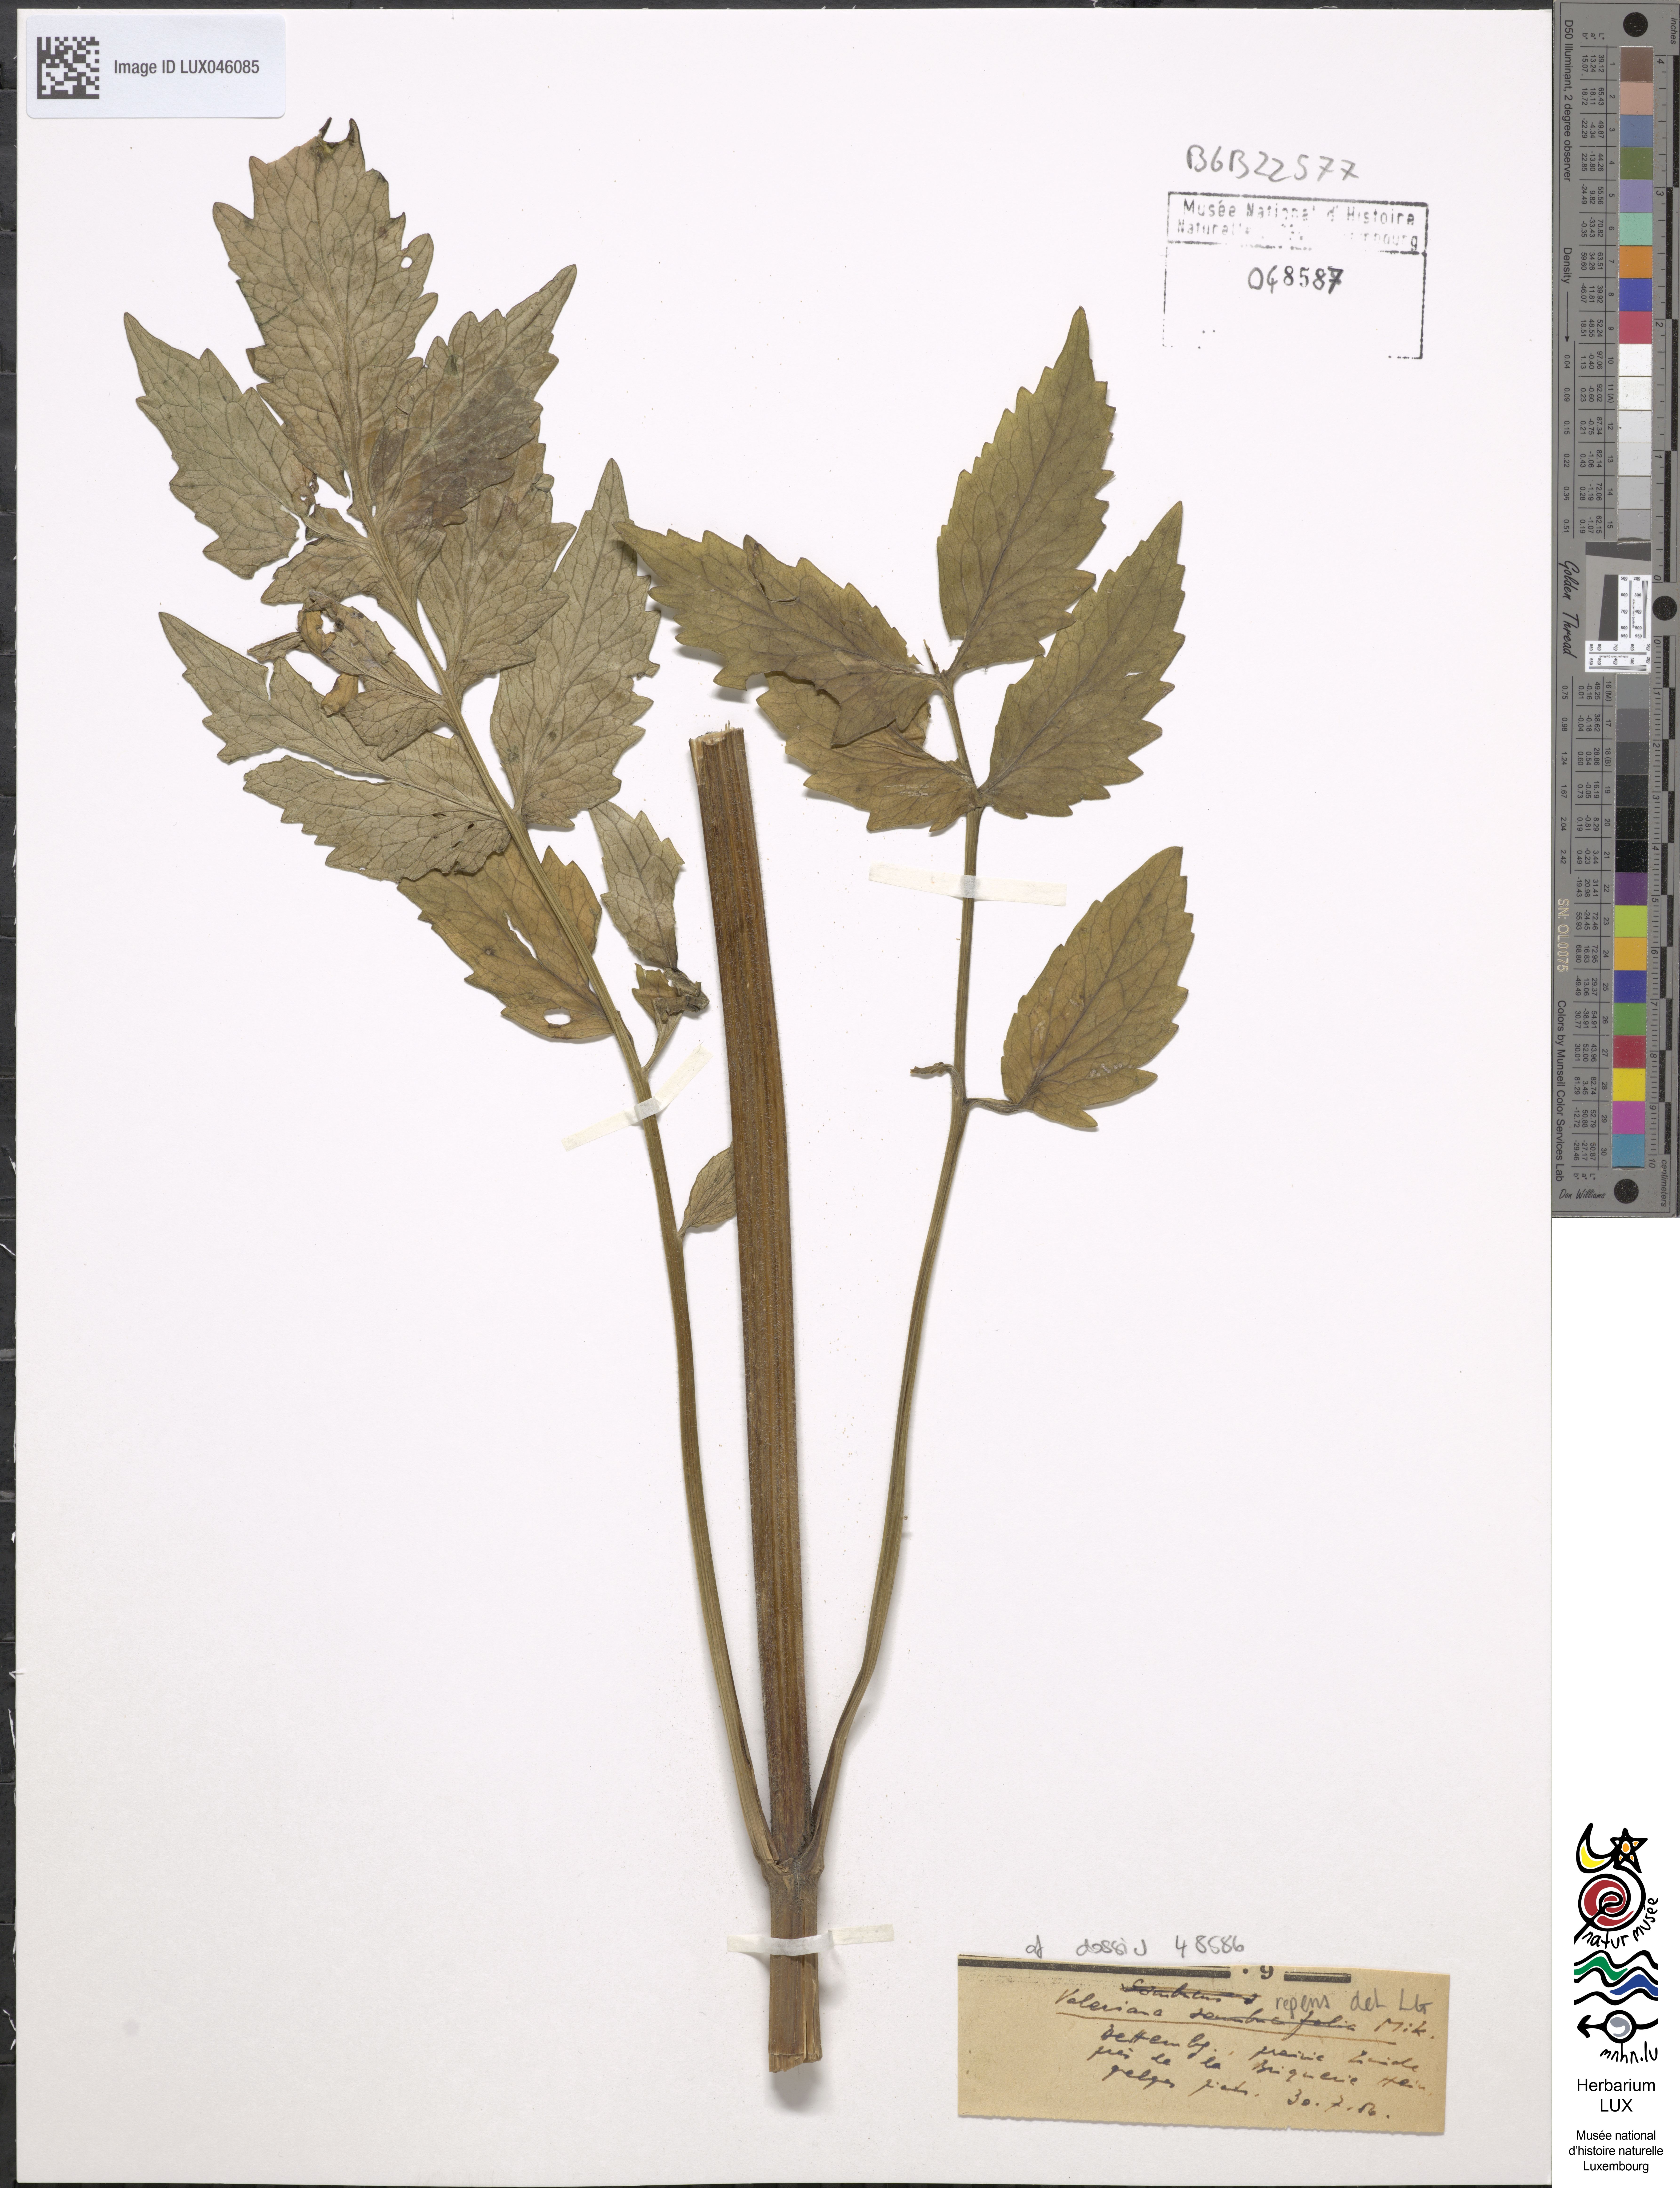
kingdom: Plantae
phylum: Tracheophyta
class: Magnoliopsida
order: Dipsacales
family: Caprifoliaceae
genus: Valeriana
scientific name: Valeriana excelsa
